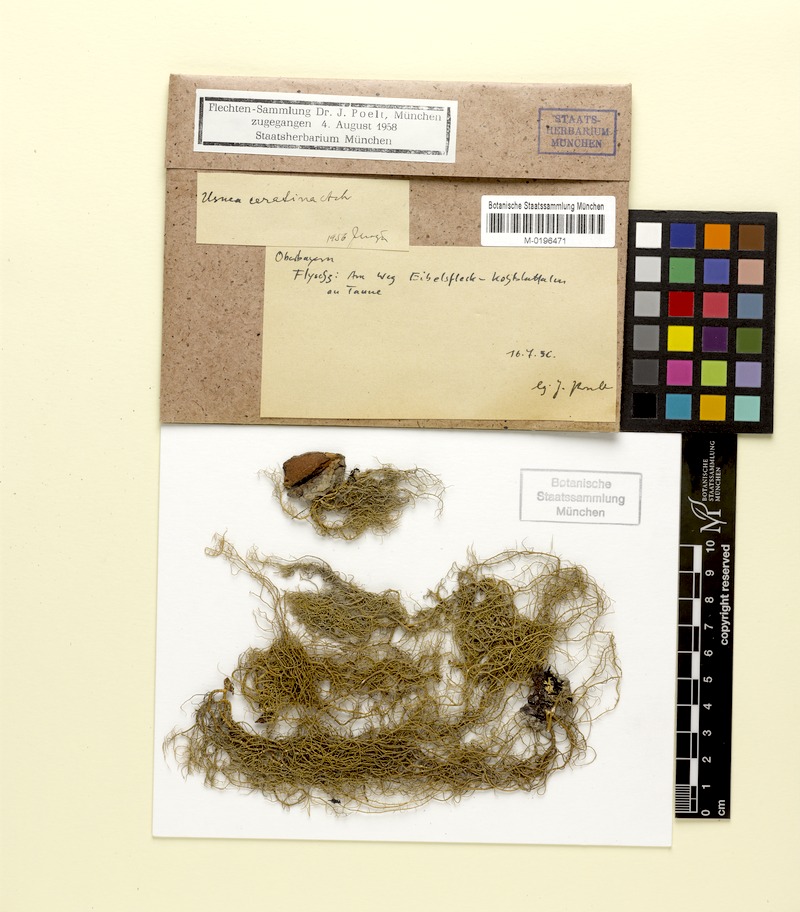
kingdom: Fungi
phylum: Ascomycota
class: Lecanoromycetes
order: Lecanorales
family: Parmeliaceae
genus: Usnea
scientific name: Usnea ceratina
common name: Warty beard lichen
